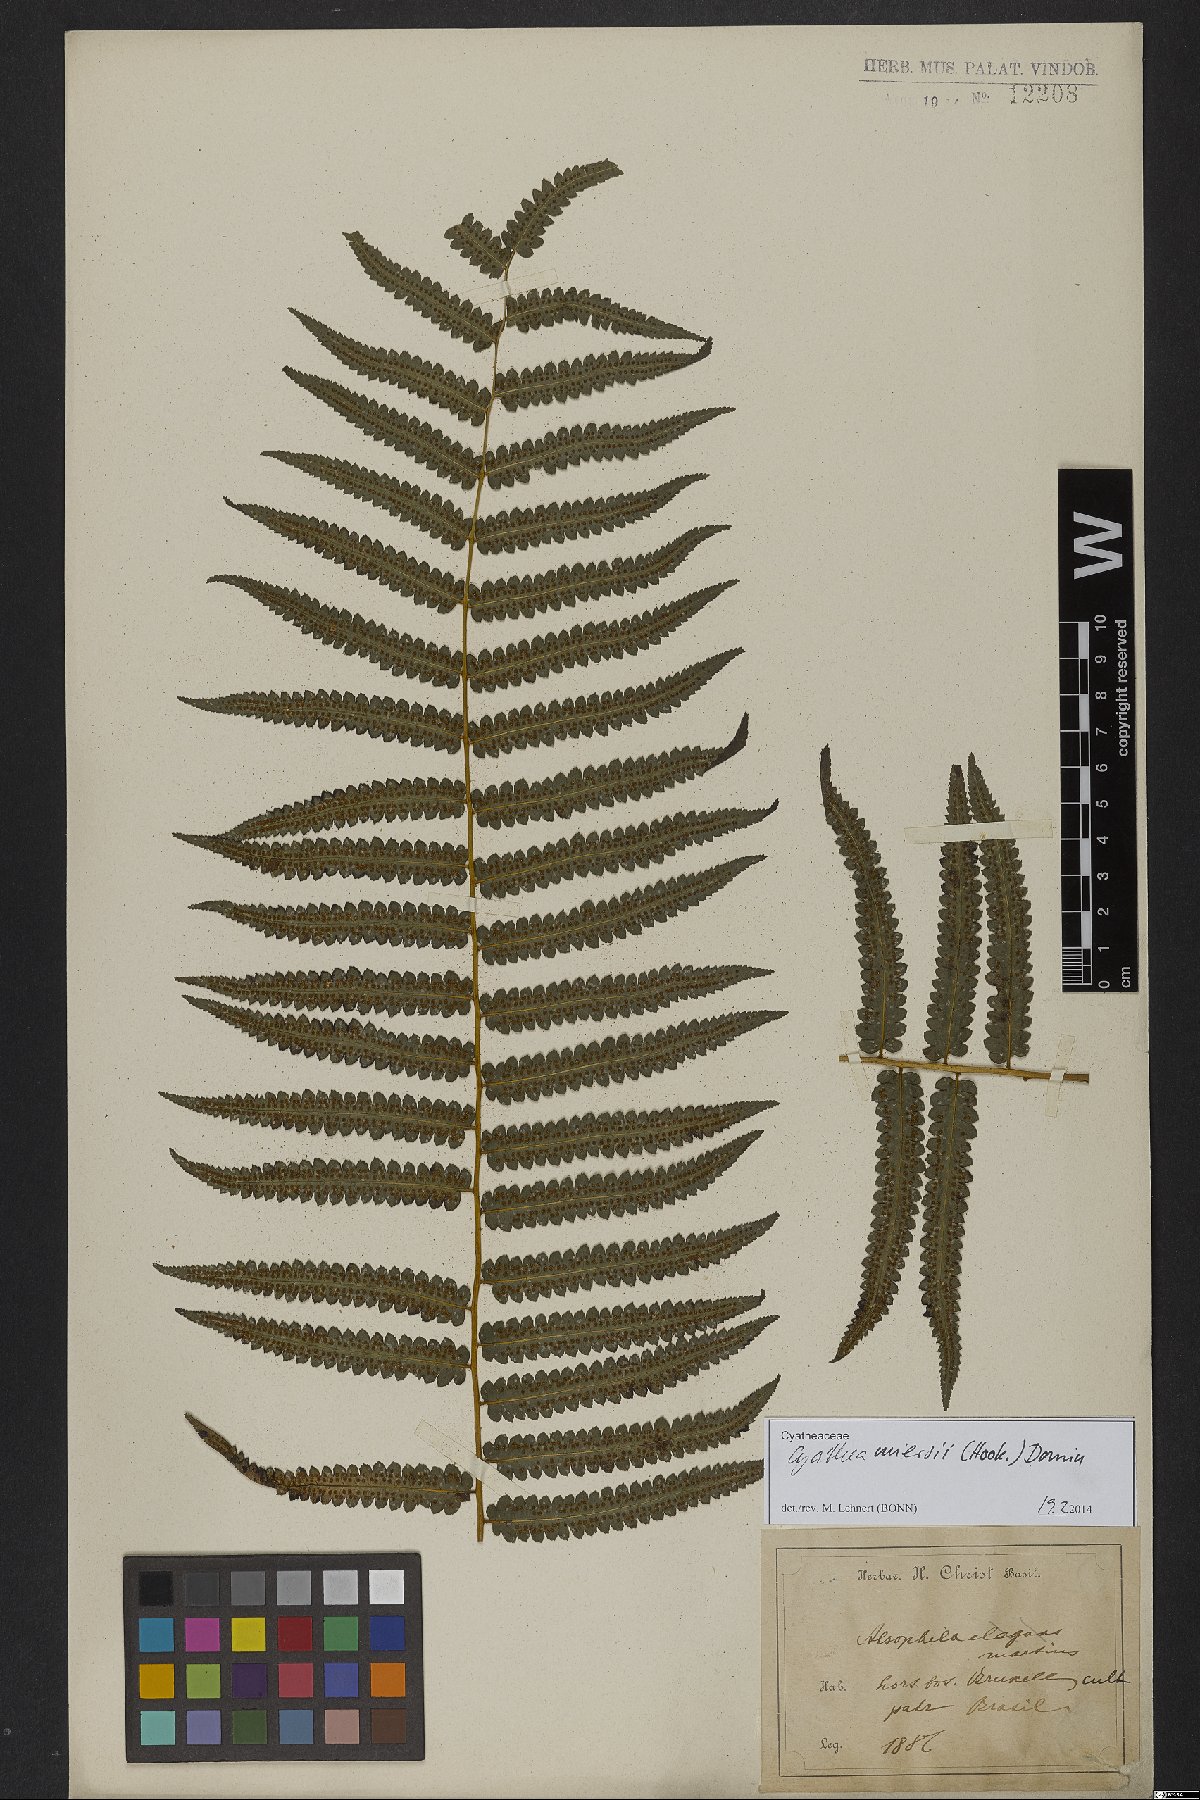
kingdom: Plantae
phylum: Tracheophyta
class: Polypodiopsida
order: Cyatheales
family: Cyatheaceae
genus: Cyathea
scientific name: Cyathea miersii
